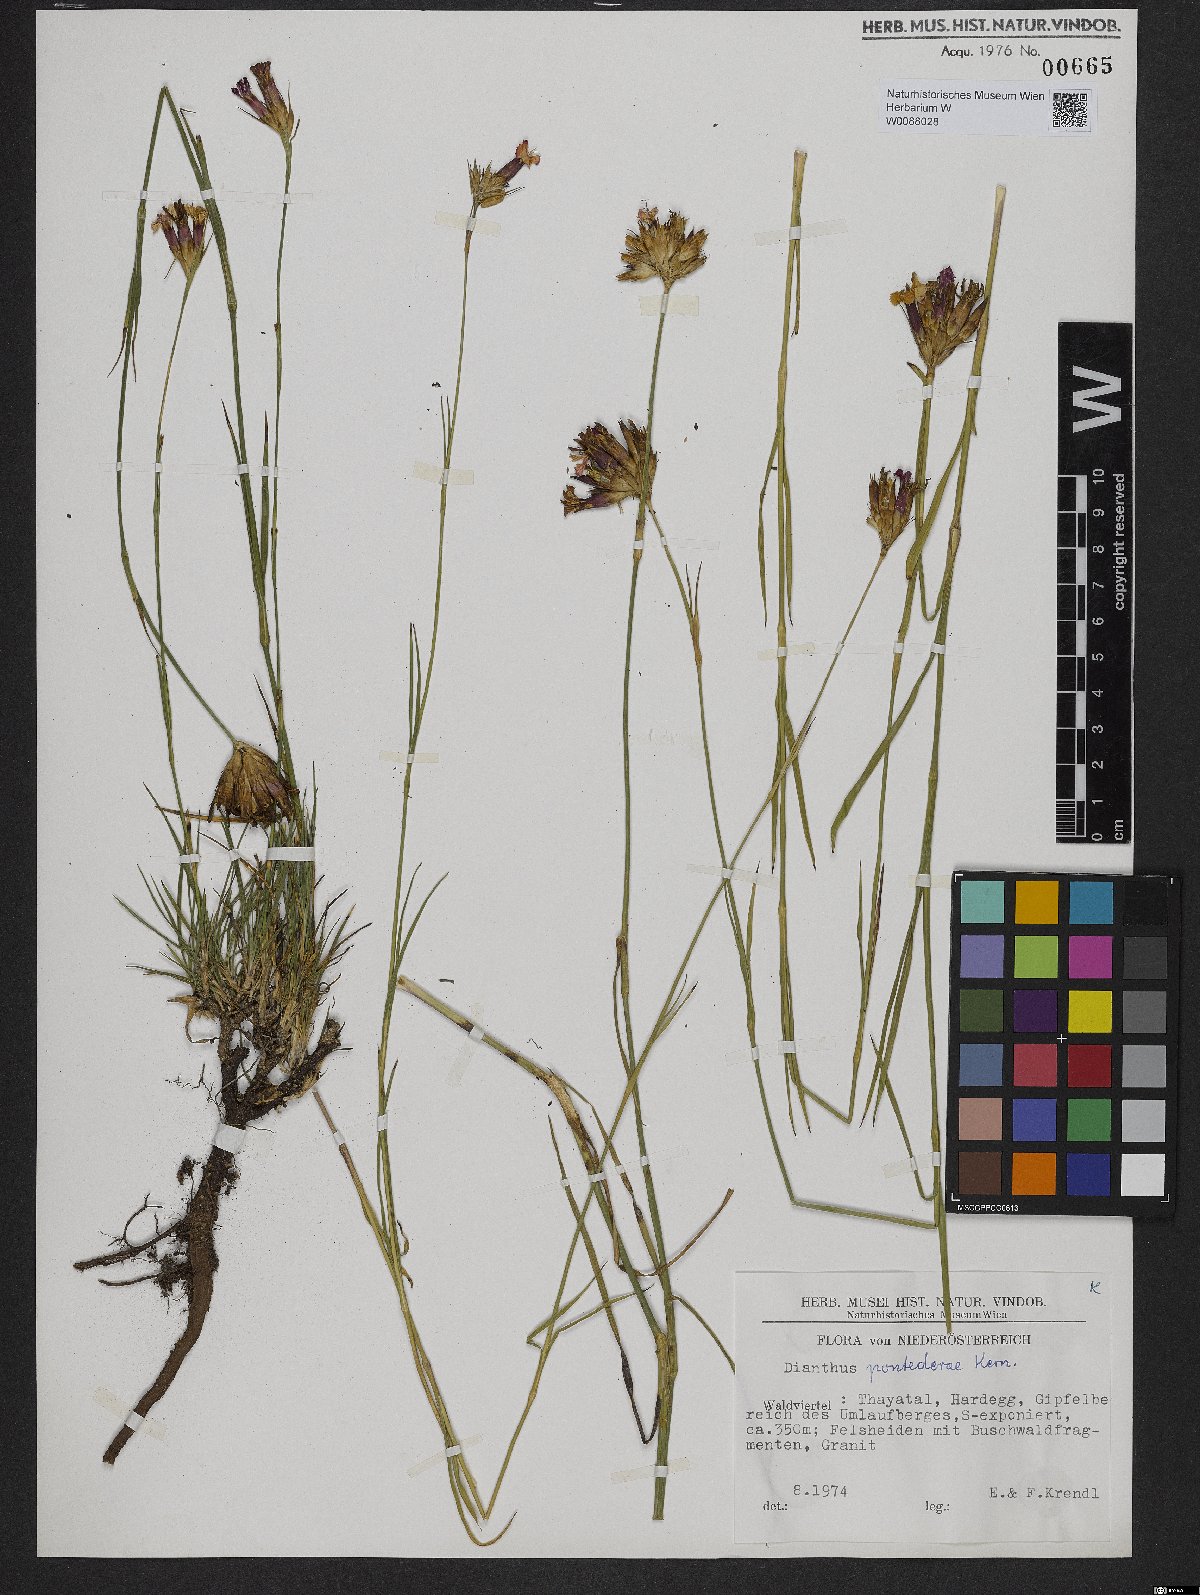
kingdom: Plantae
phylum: Tracheophyta
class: Magnoliopsida
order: Caryophyllales
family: Caryophyllaceae
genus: Dianthus
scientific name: Dianthus pontederae
